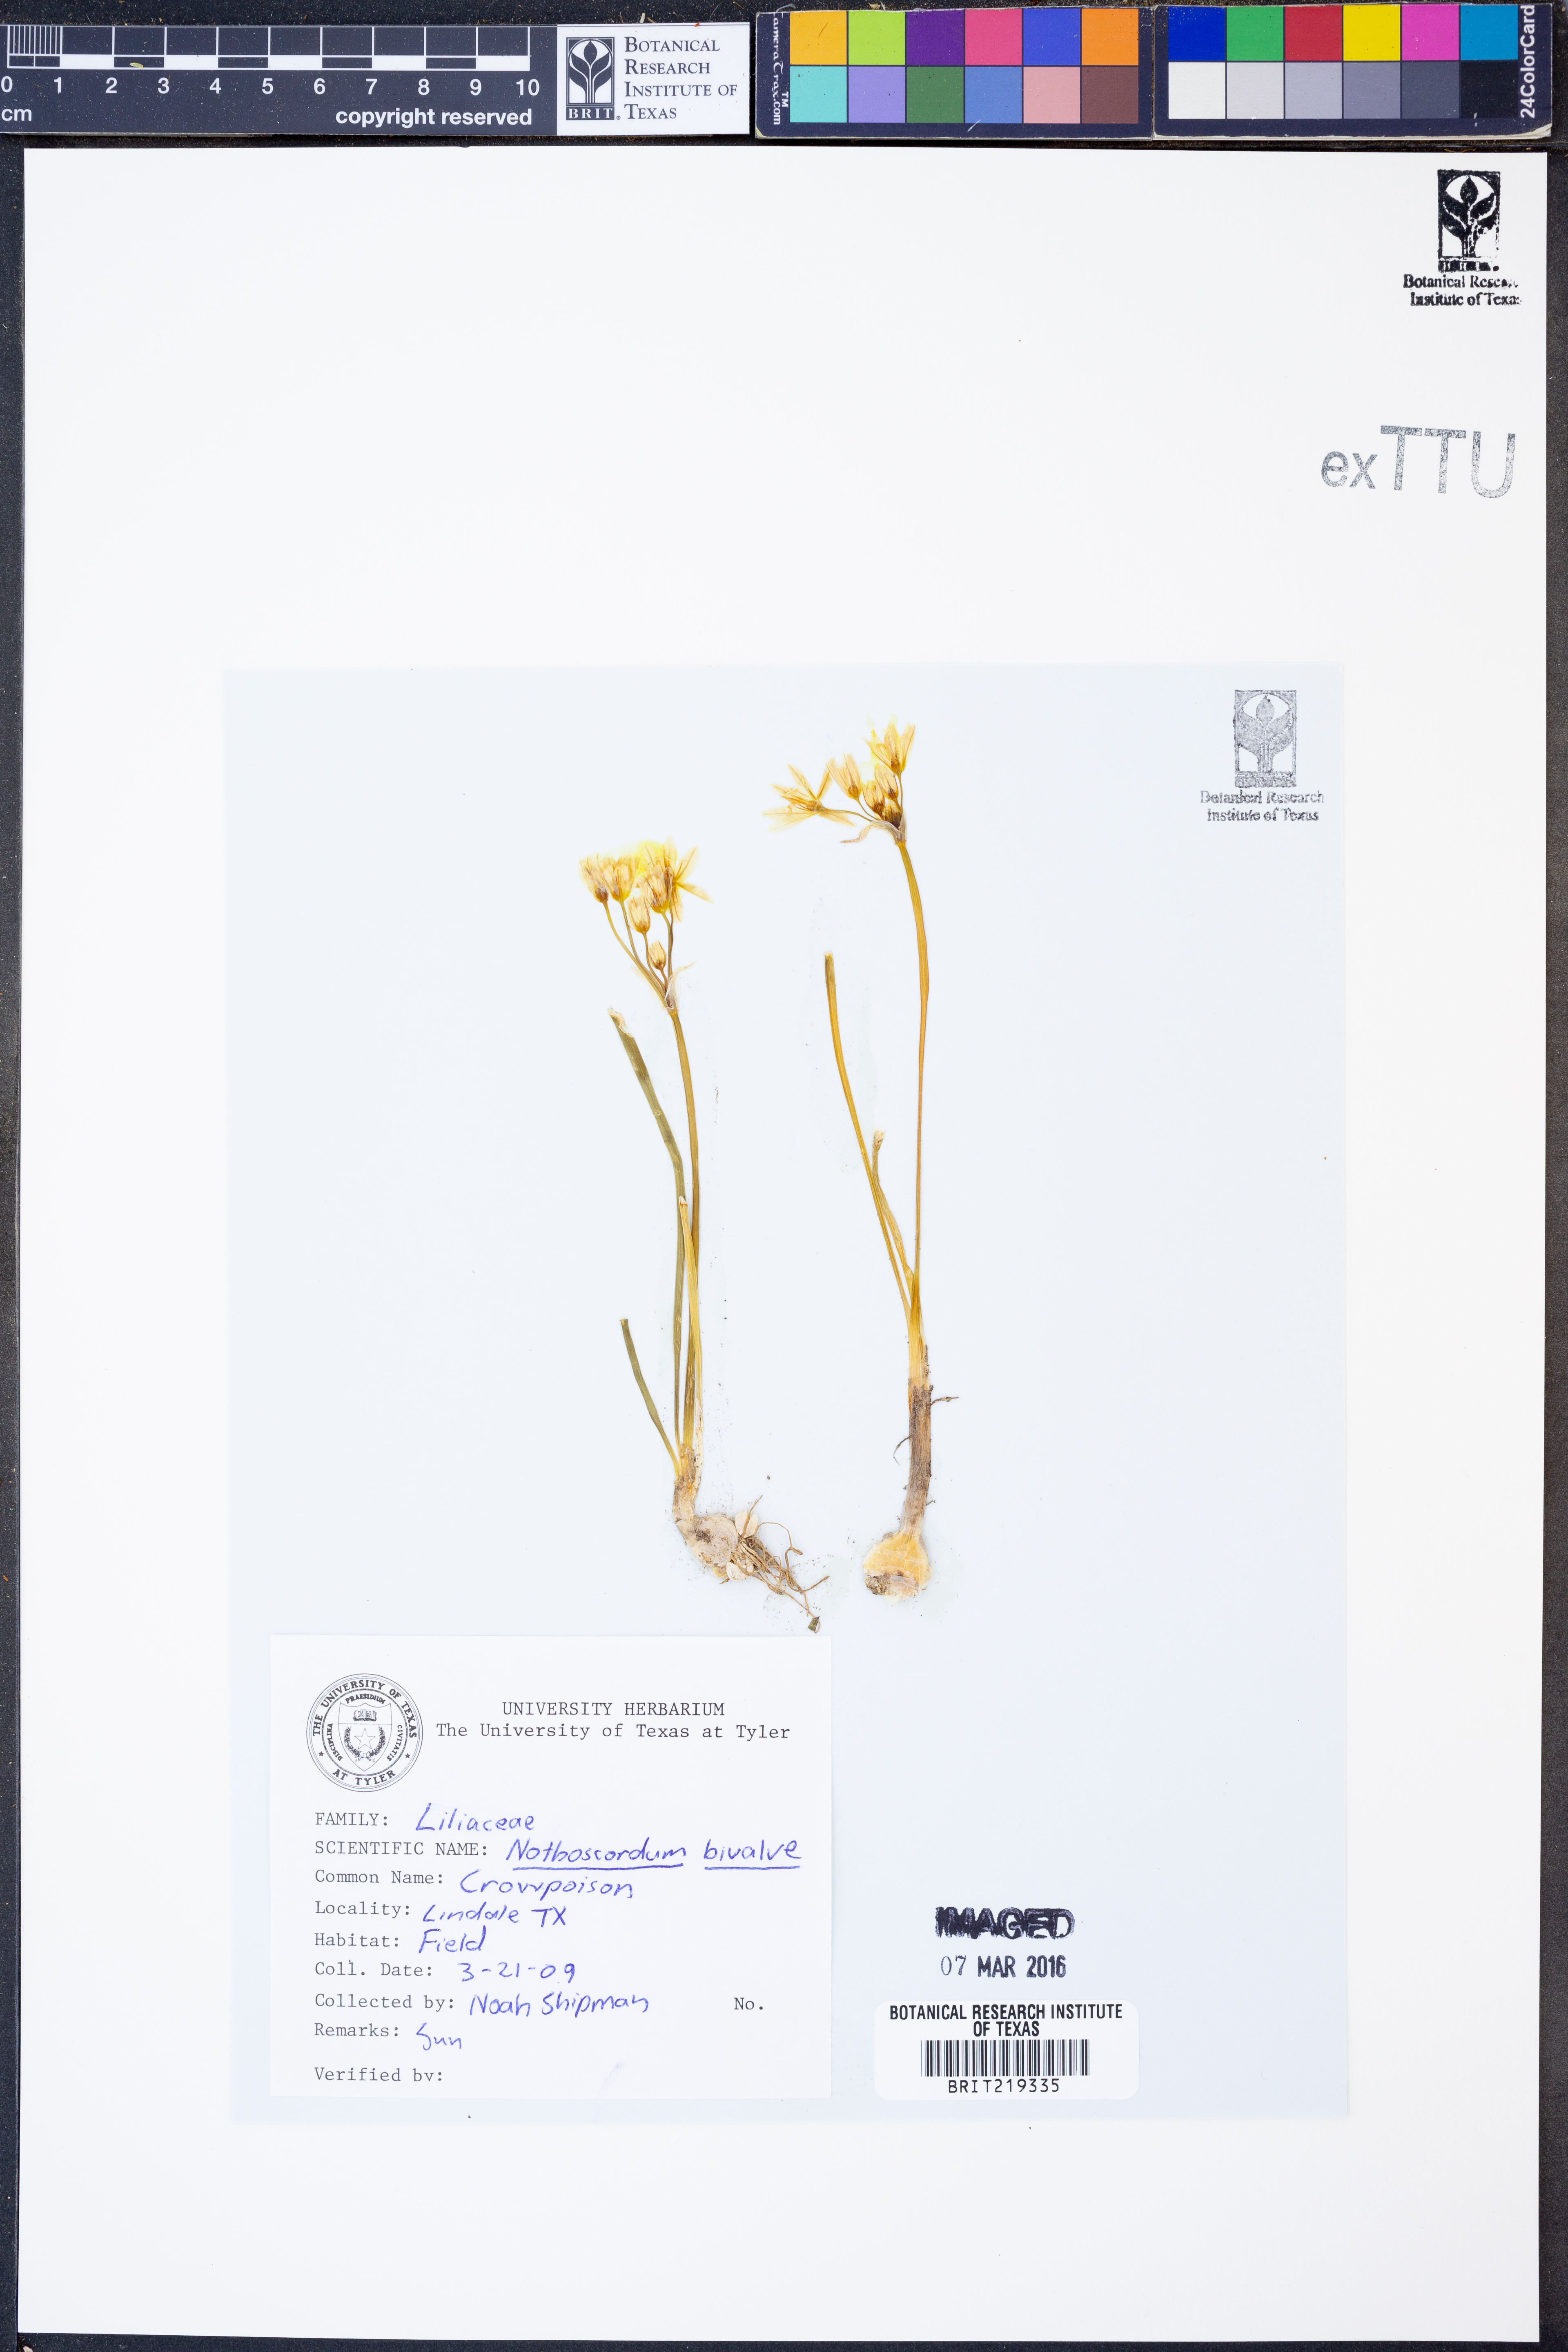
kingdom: Plantae
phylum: Tracheophyta
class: Liliopsida
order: Asparagales
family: Amaryllidaceae
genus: Nothoscordum
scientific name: Nothoscordum bivalve
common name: Crow-poison
